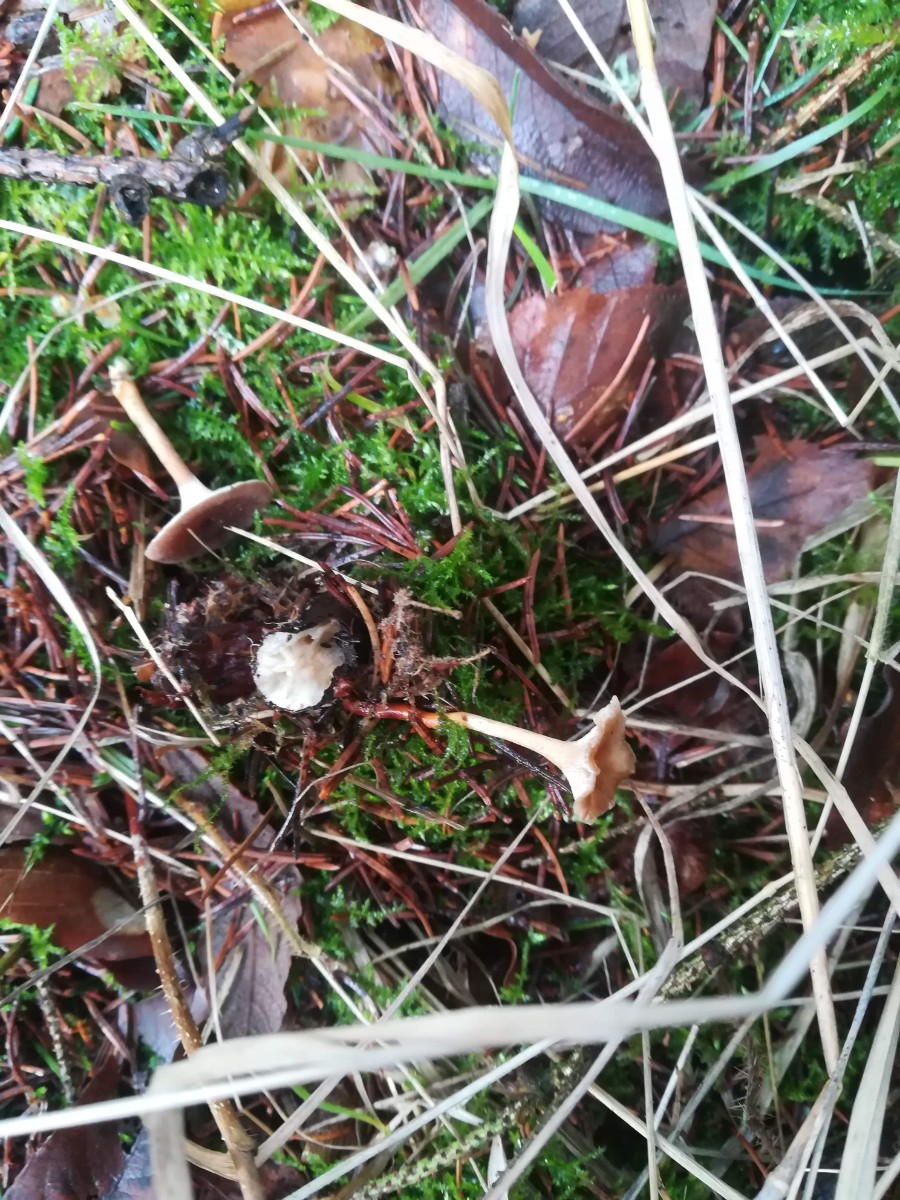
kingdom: Fungi
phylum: Basidiomycota
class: Agaricomycetes
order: Polyporales
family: Polyporaceae
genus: Lentinus
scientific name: Lentinus brumalis
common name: vinter-stilkporesvamp
